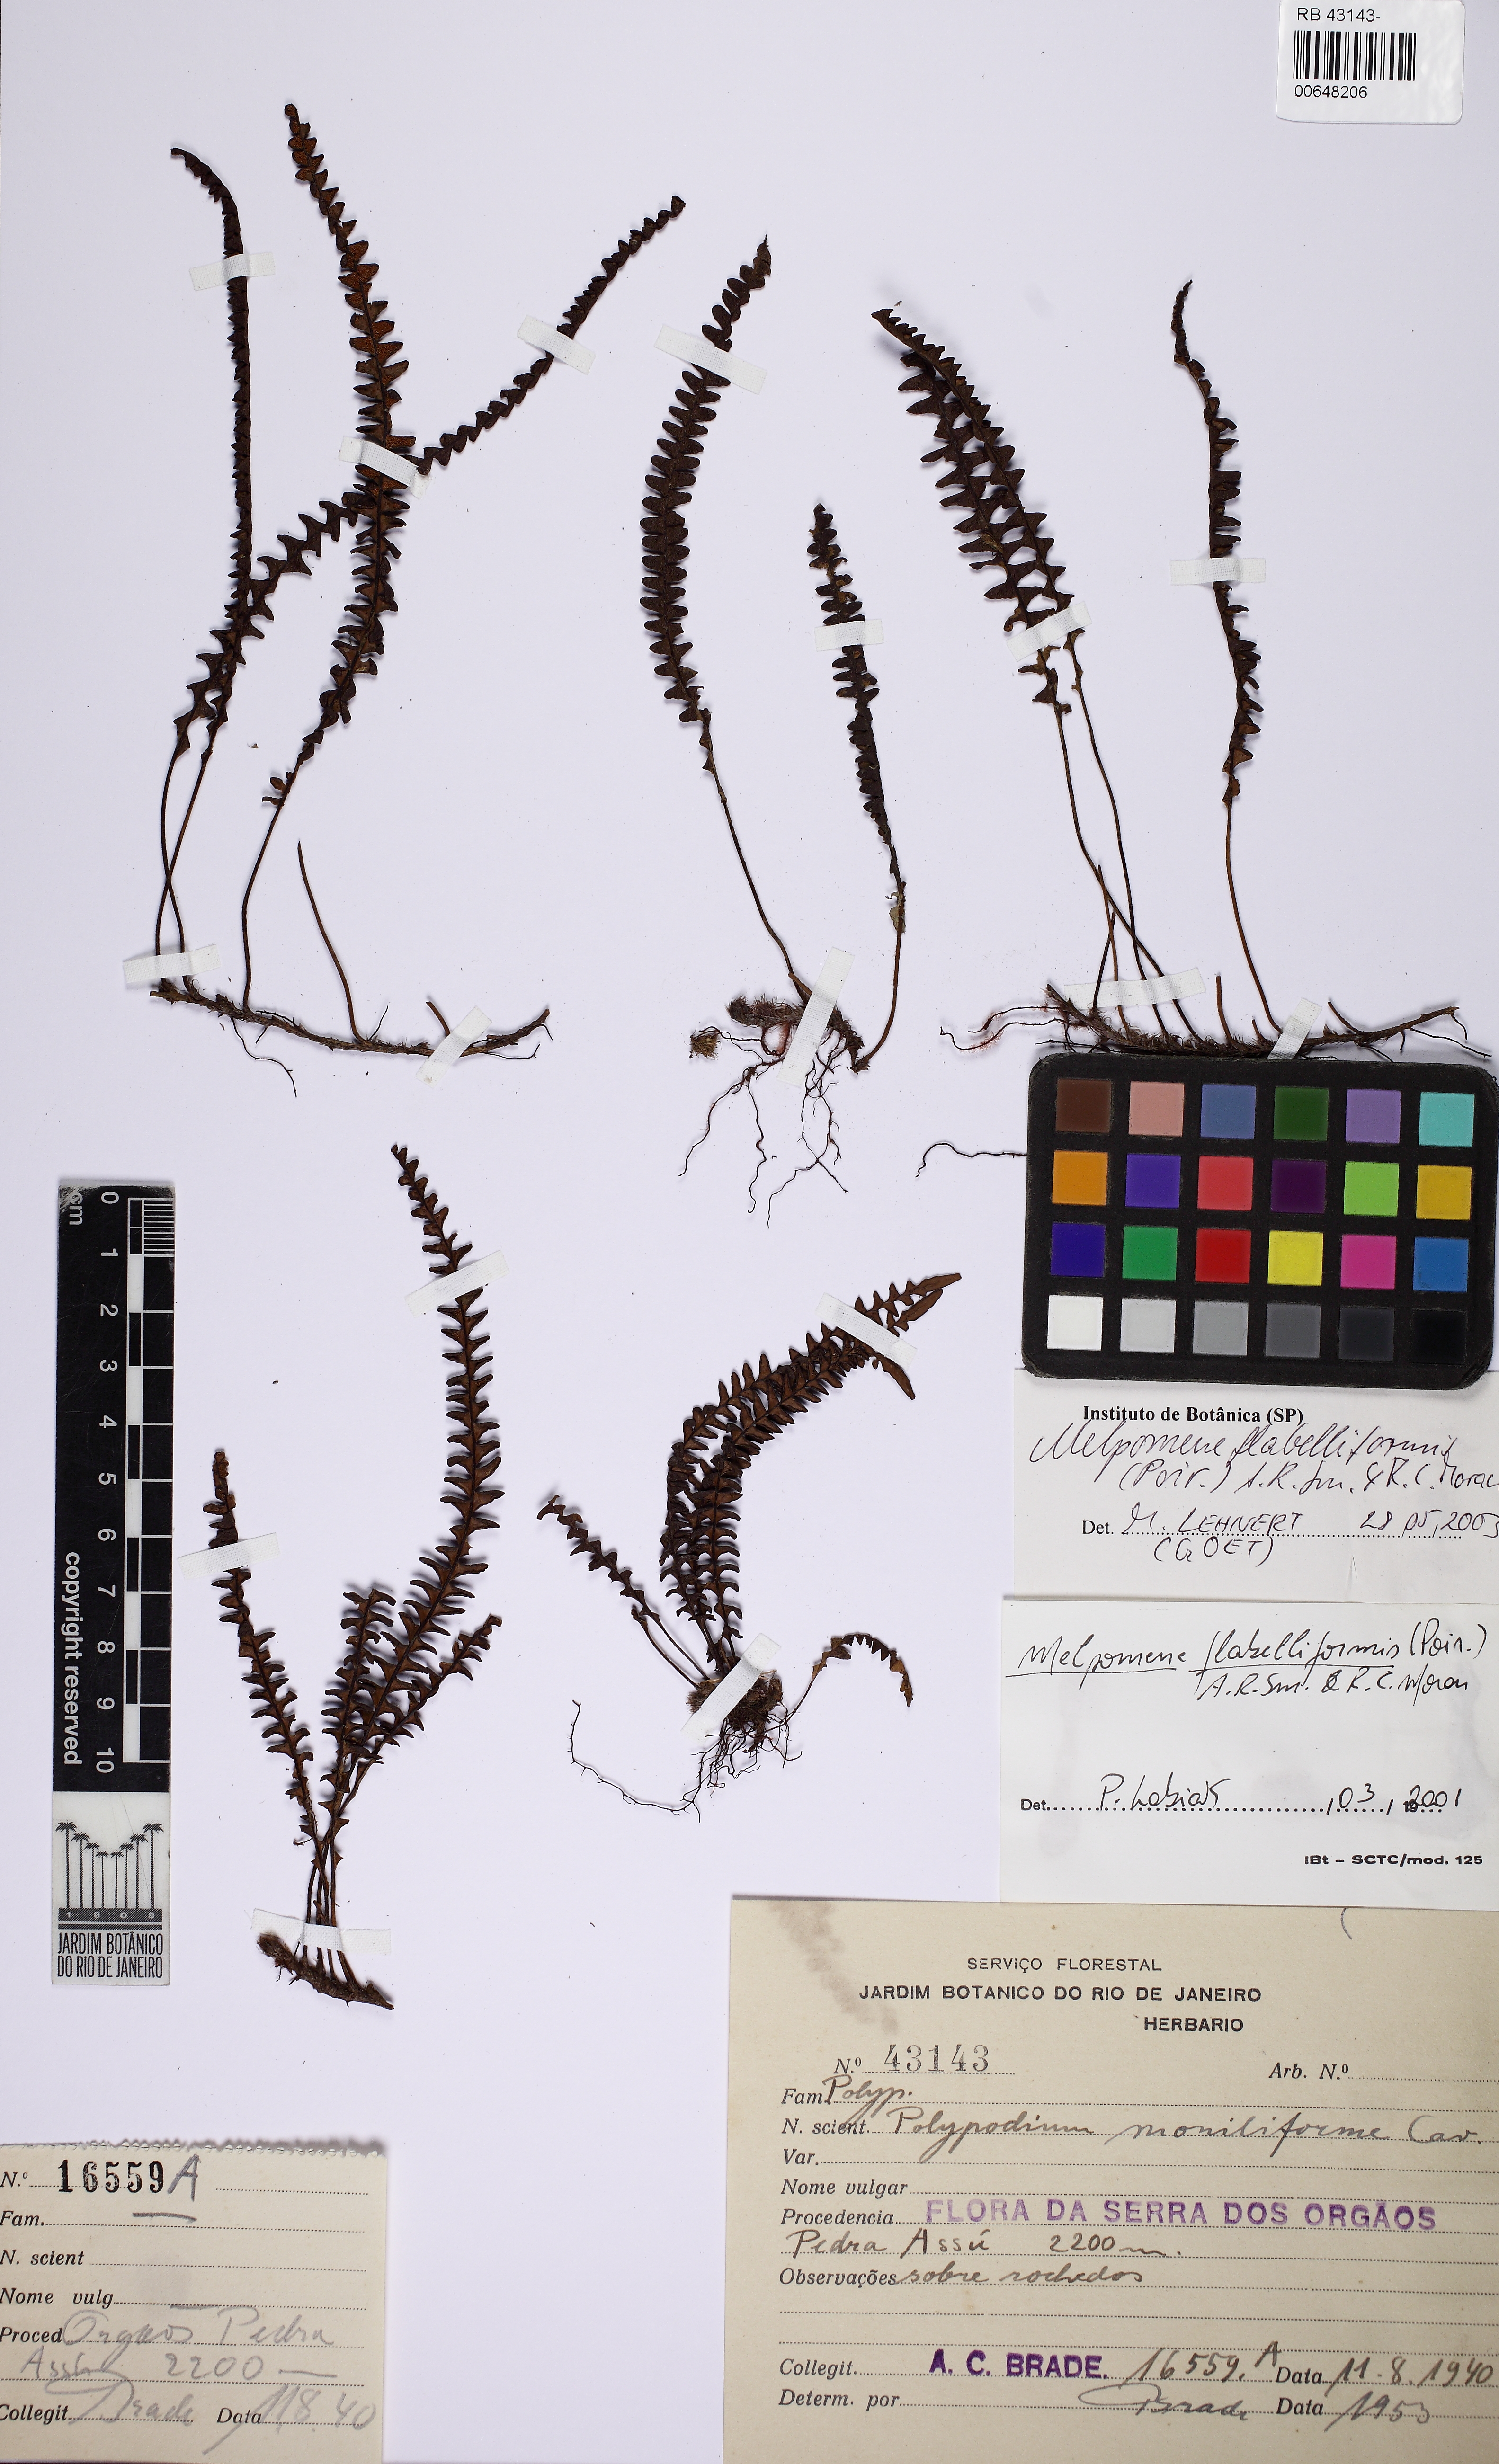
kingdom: Plantae
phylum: Tracheophyta
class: Polypodiopsida
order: Polypodiales
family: Polypodiaceae
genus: Melpomene
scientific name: Melpomene flabelliformis
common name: Fanleaf dwarf polypody
